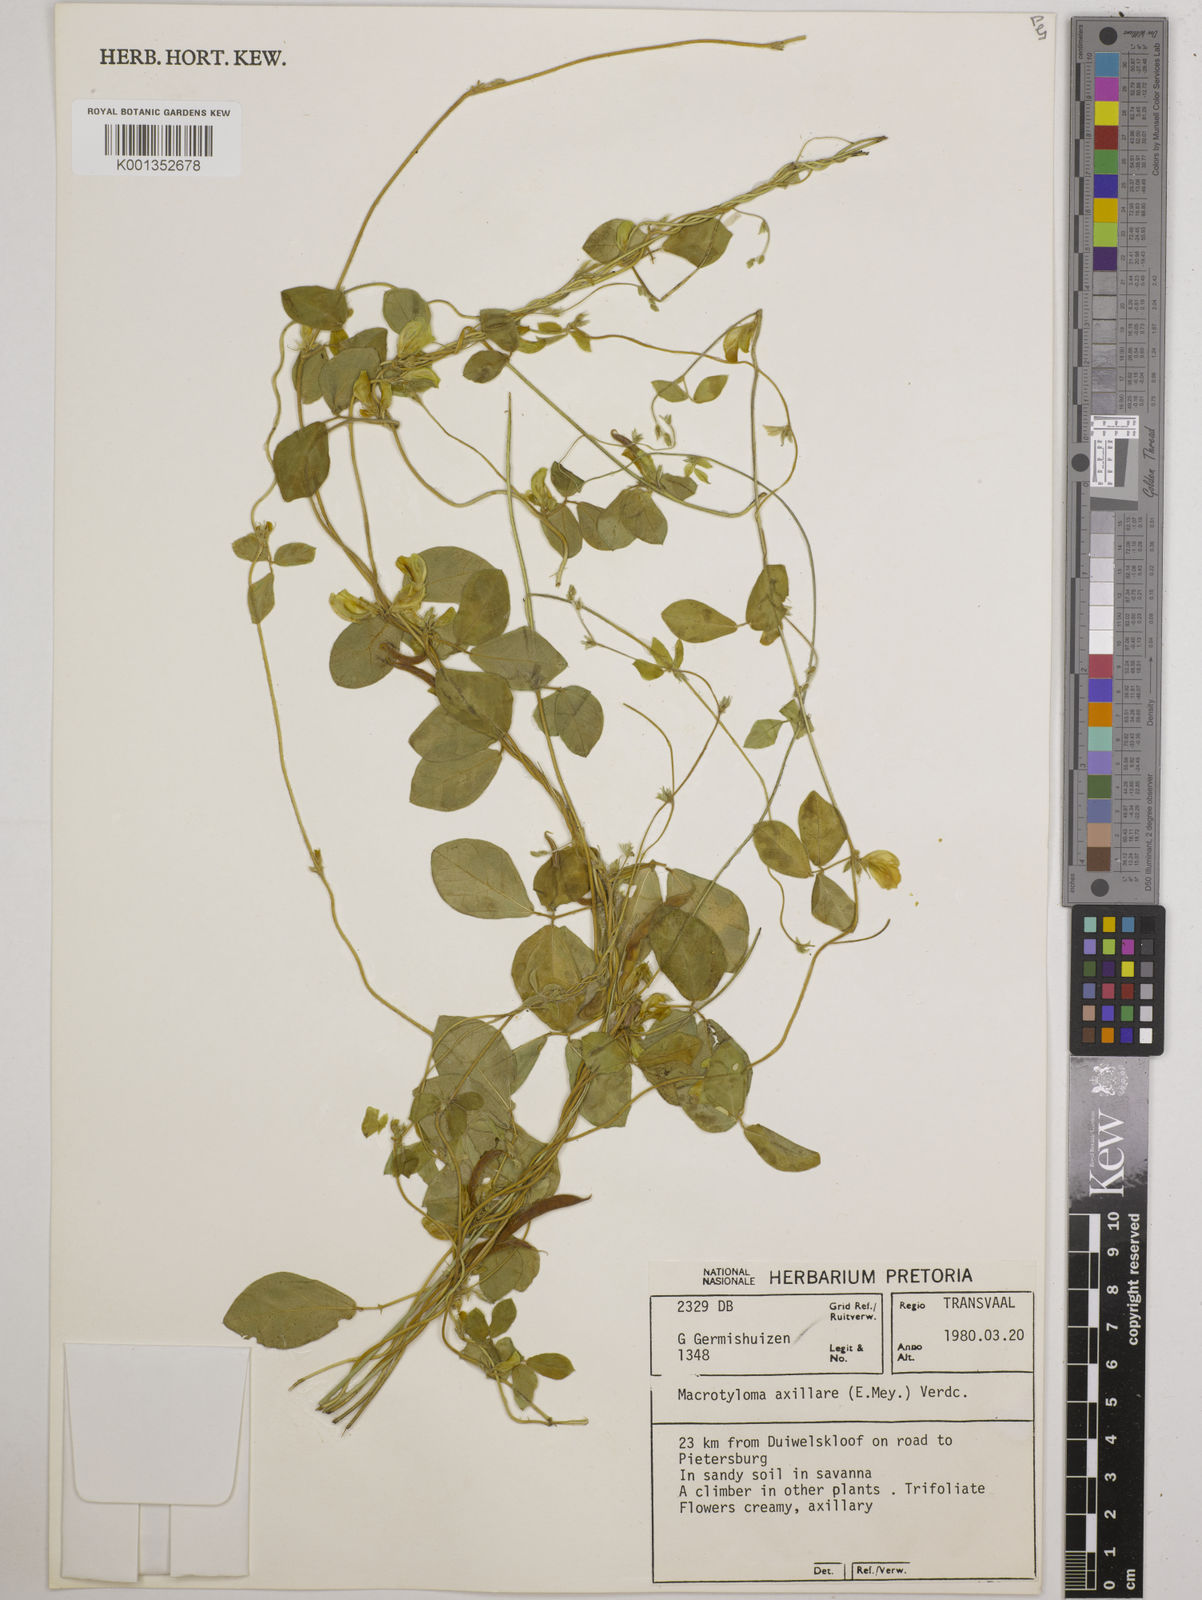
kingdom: Plantae
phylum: Tracheophyta
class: Magnoliopsida
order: Fabales
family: Fabaceae
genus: Macrotyloma
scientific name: Macrotyloma axillare
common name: Perennial horsegram
